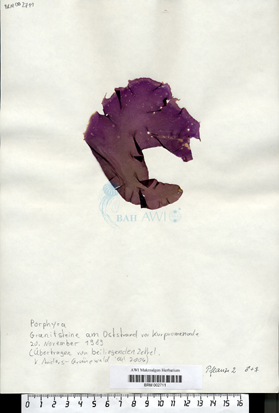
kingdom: Plantae
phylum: Rhodophyta
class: Bangiophyceae
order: Bangiales
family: Bangiaceae
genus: Porphyra
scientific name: Porphyra dioica
